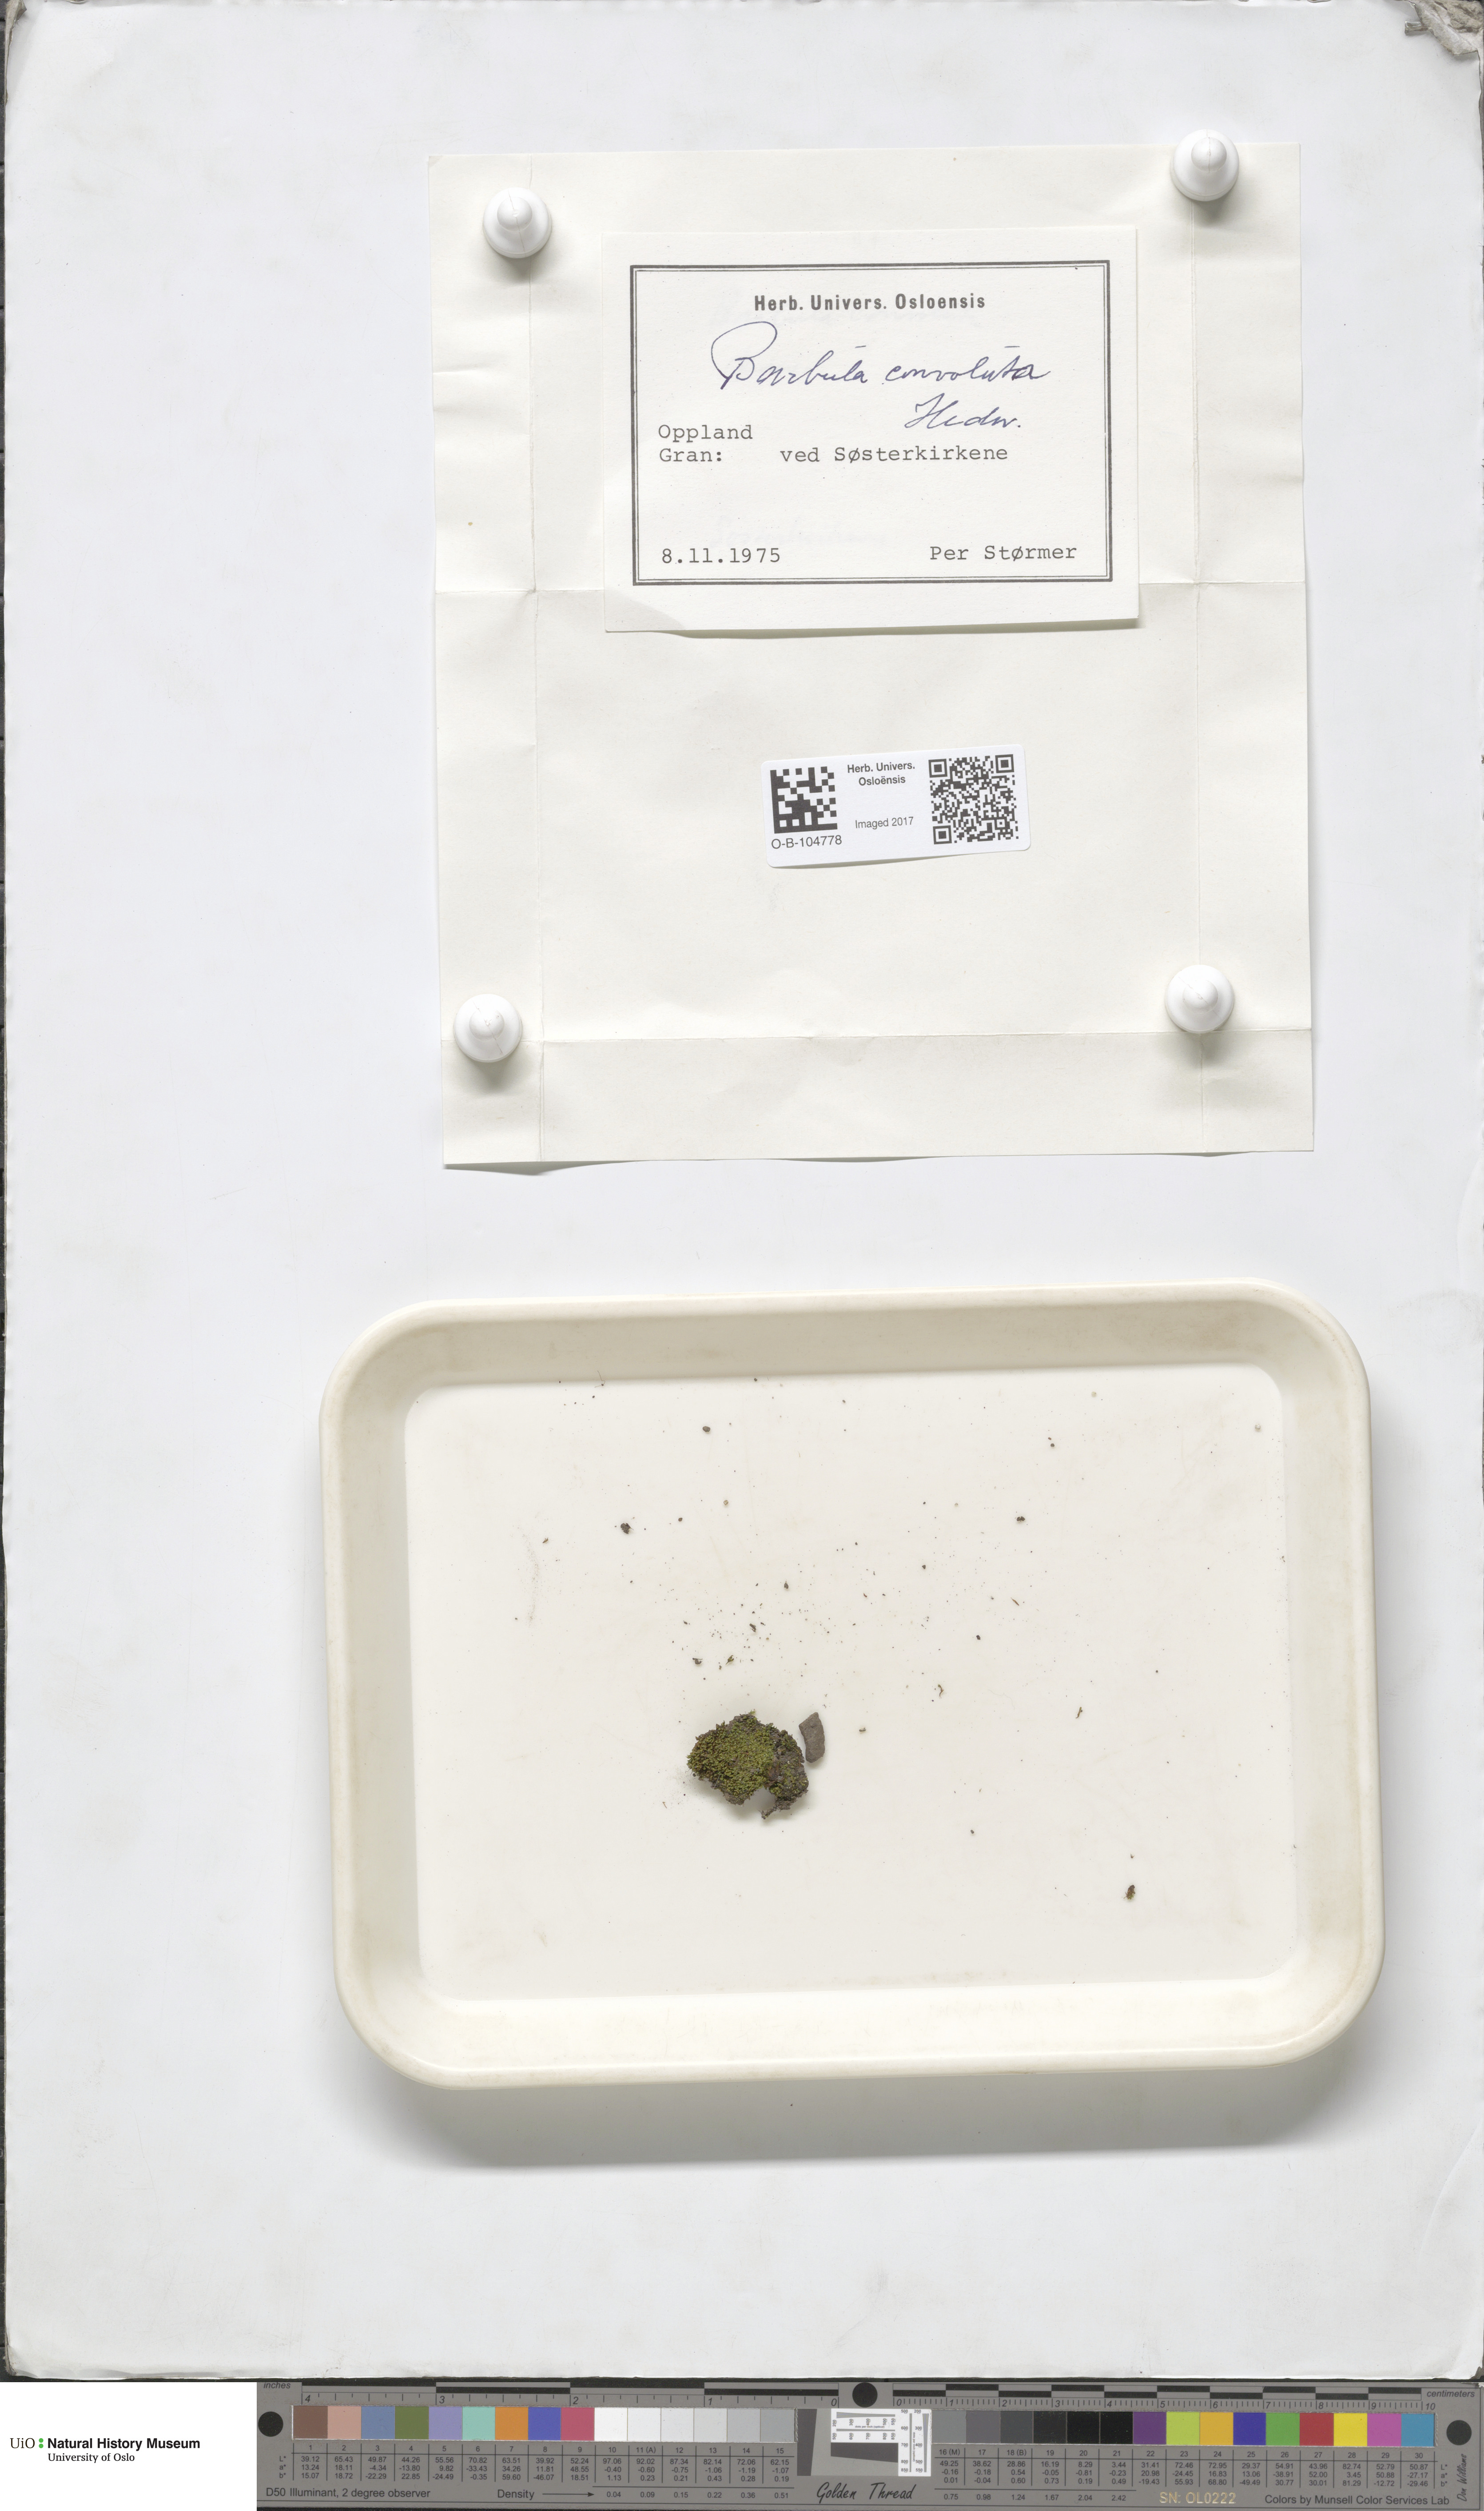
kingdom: Plantae
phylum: Bryophyta
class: Bryopsida
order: Pottiales
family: Pottiaceae
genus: Streblotrichum
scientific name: Streblotrichum convolutum
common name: Lesser bird's-claw beard-moss
